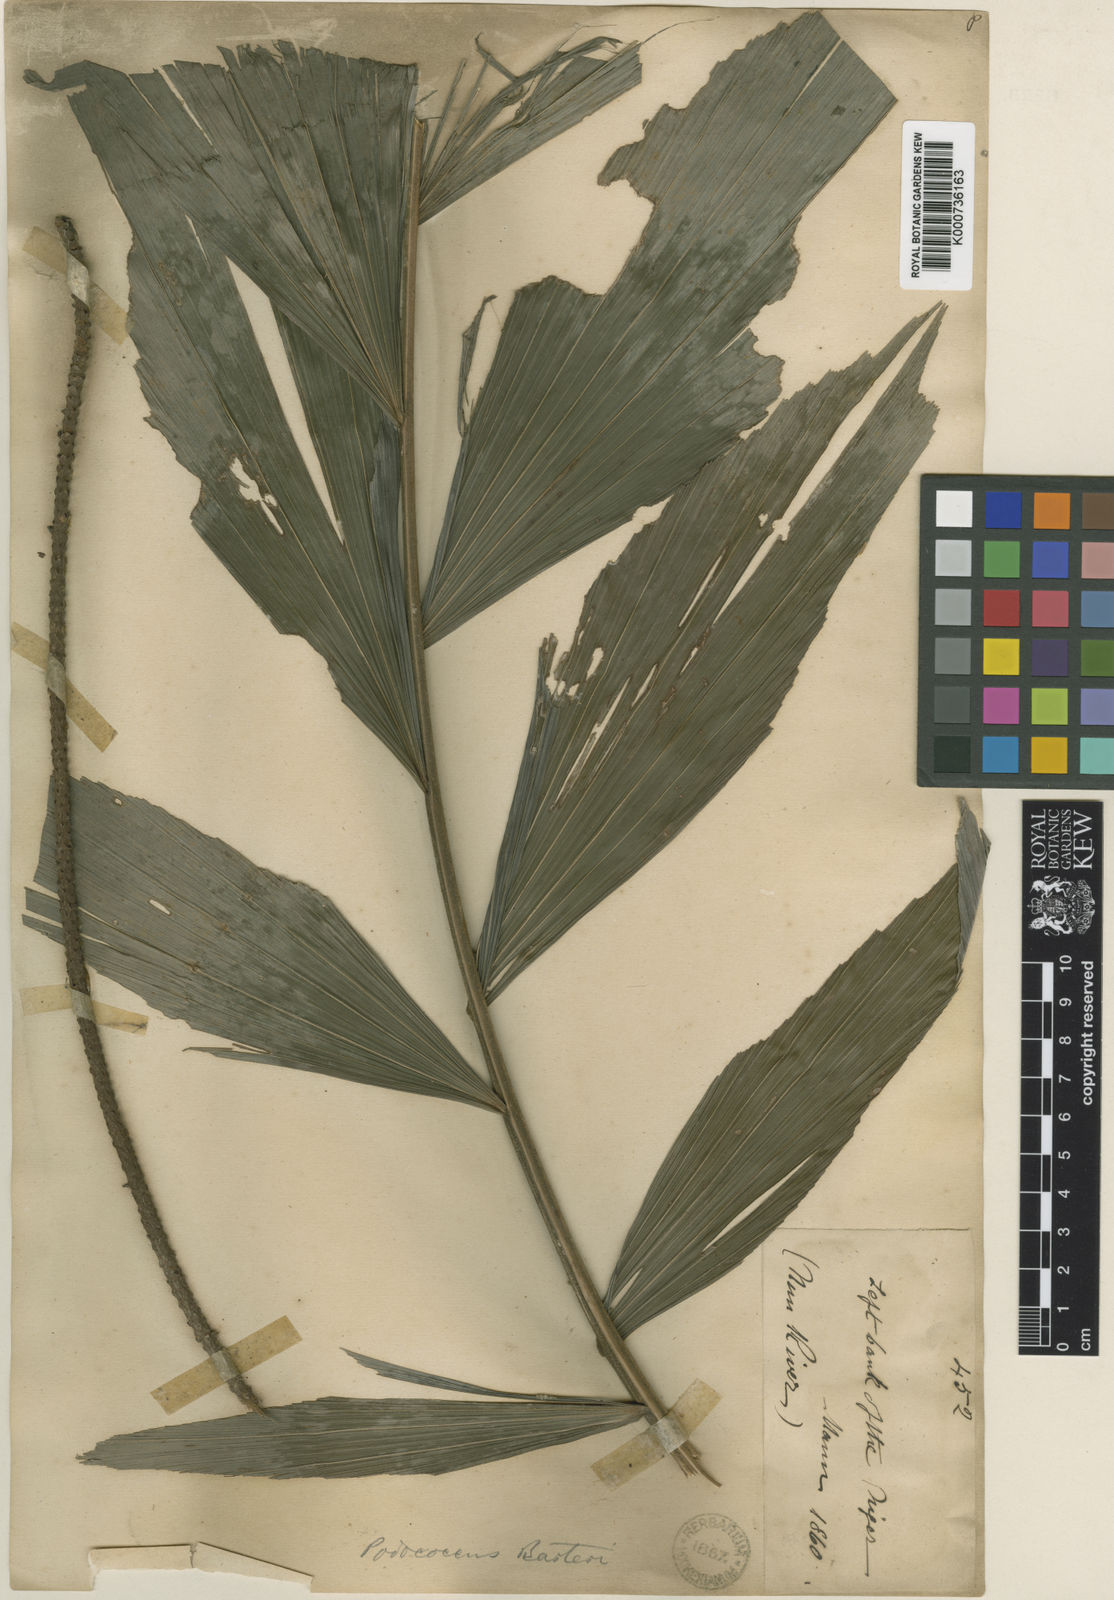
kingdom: Plantae
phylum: Tracheophyta
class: Liliopsida
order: Arecales
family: Arecaceae
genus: Podococcus
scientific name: Podococcus barteri
